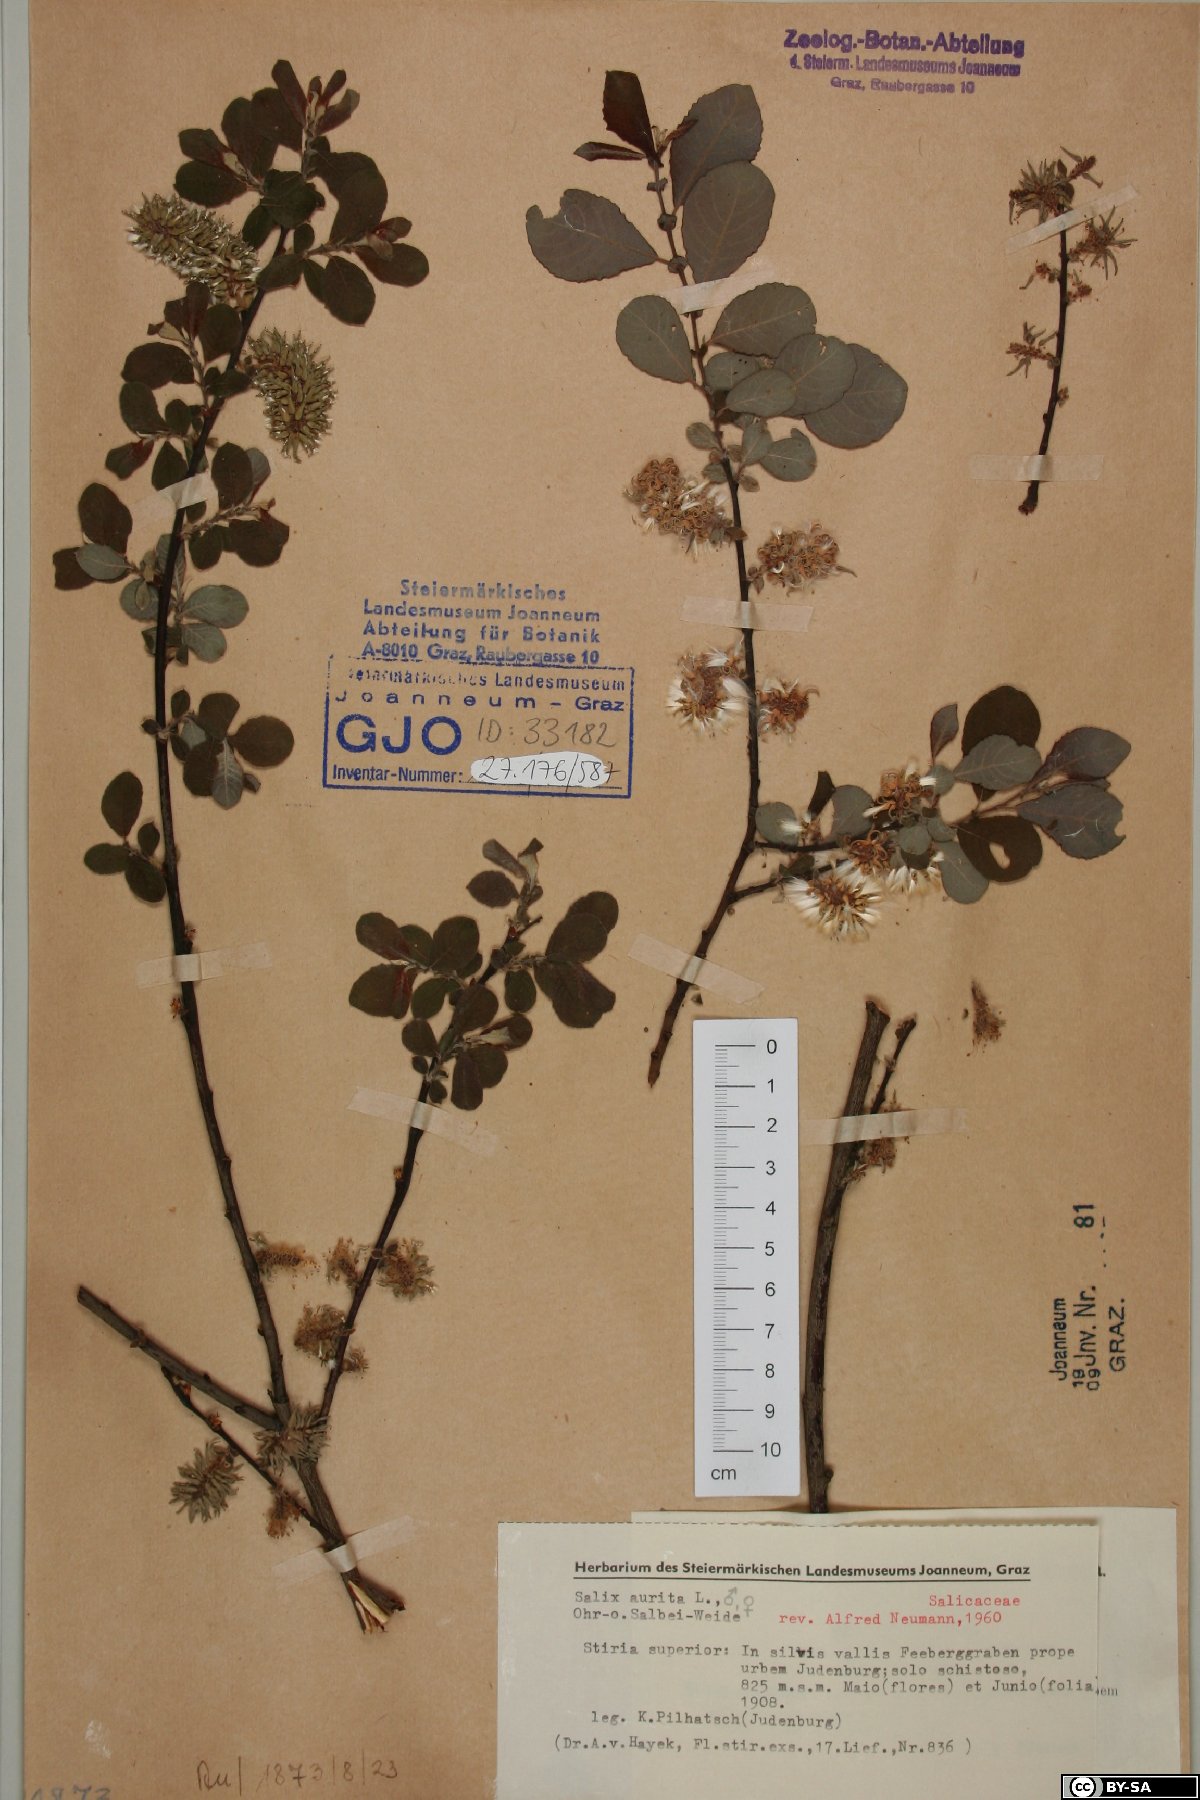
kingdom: Plantae
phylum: Tracheophyta
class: Magnoliopsida
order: Malpighiales
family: Salicaceae
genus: Salix
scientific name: Salix aurita
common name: Eared willow
